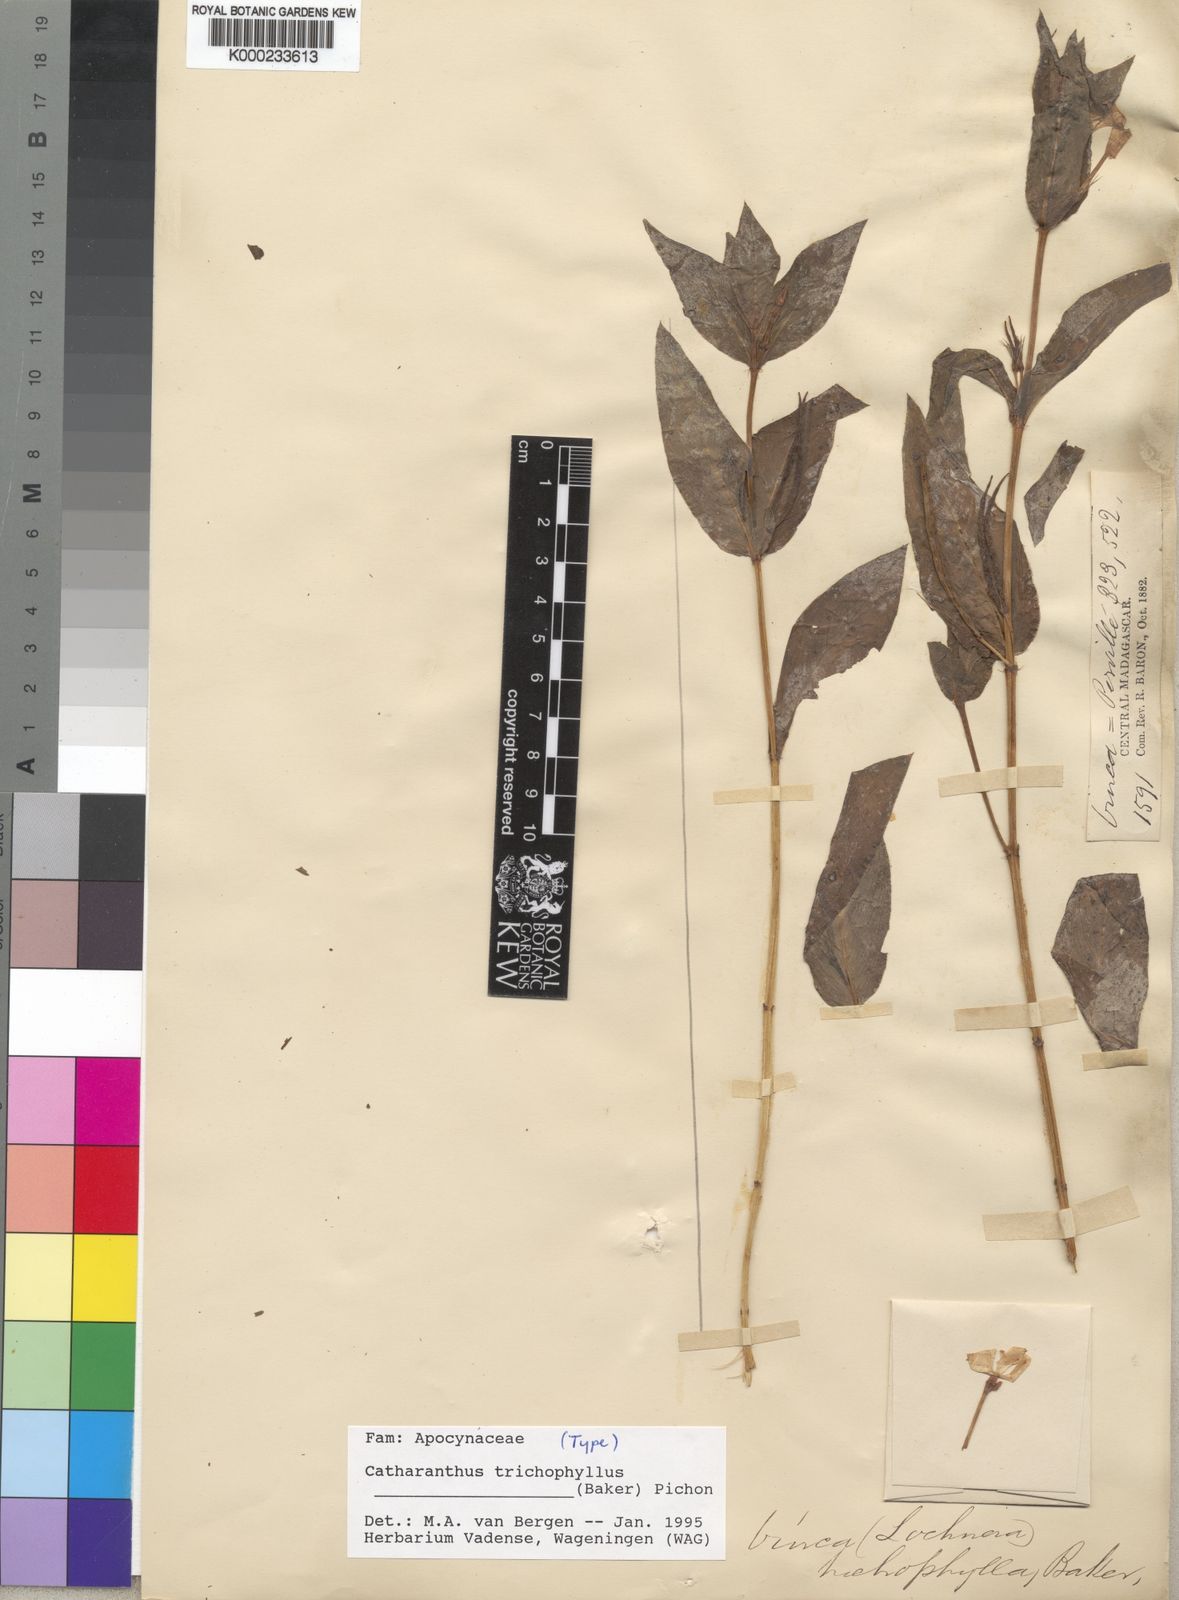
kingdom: Plantae
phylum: Tracheophyta
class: Magnoliopsida
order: Gentianales
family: Apocynaceae
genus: Catharanthus
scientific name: Catharanthus trichophyllus
